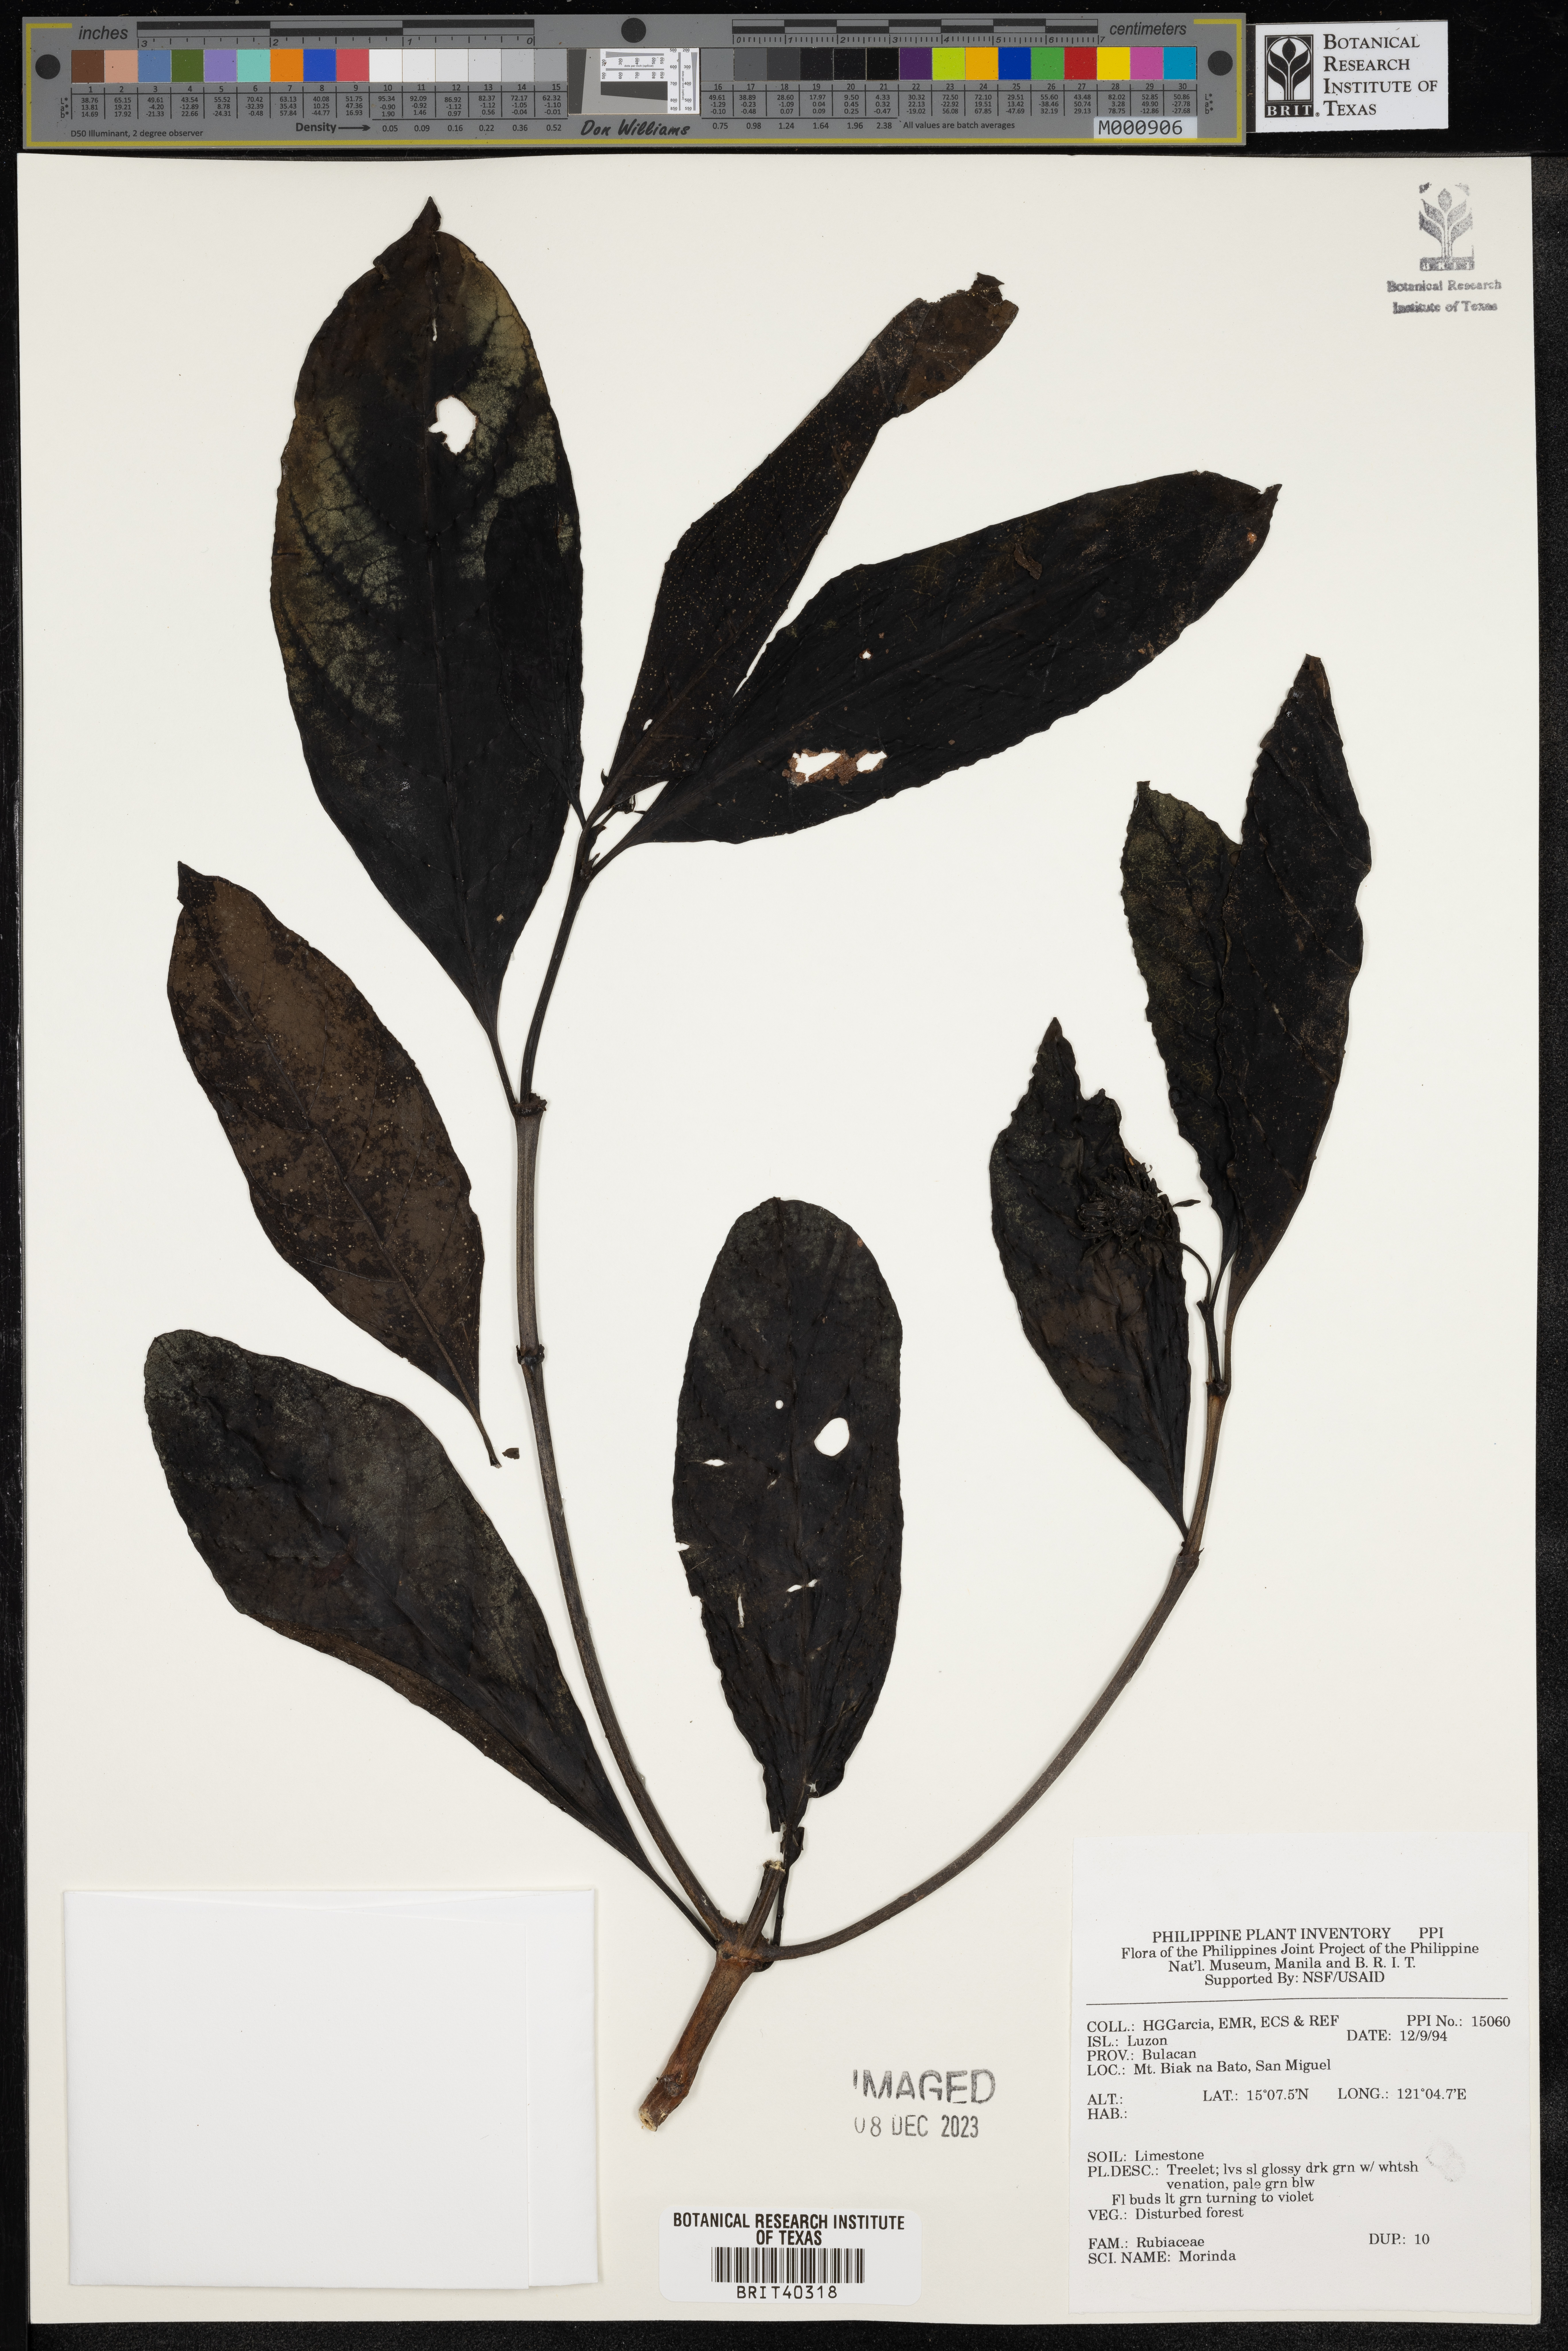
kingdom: Plantae
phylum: Tracheophyta
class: Magnoliopsida
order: Gentianales
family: Rubiaceae
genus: Morinda
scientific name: Morinda
